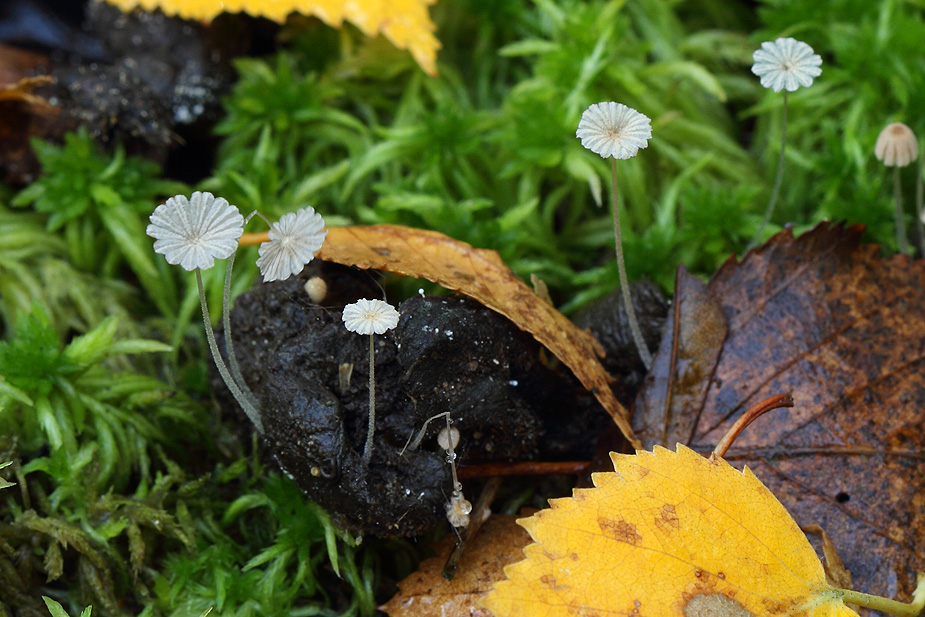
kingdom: Fungi
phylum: Basidiomycota
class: Agaricomycetes
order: Agaricales
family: Psathyrellaceae
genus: Coprinellus
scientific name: Coprinellus pusillulus
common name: lillebitte blækhat
